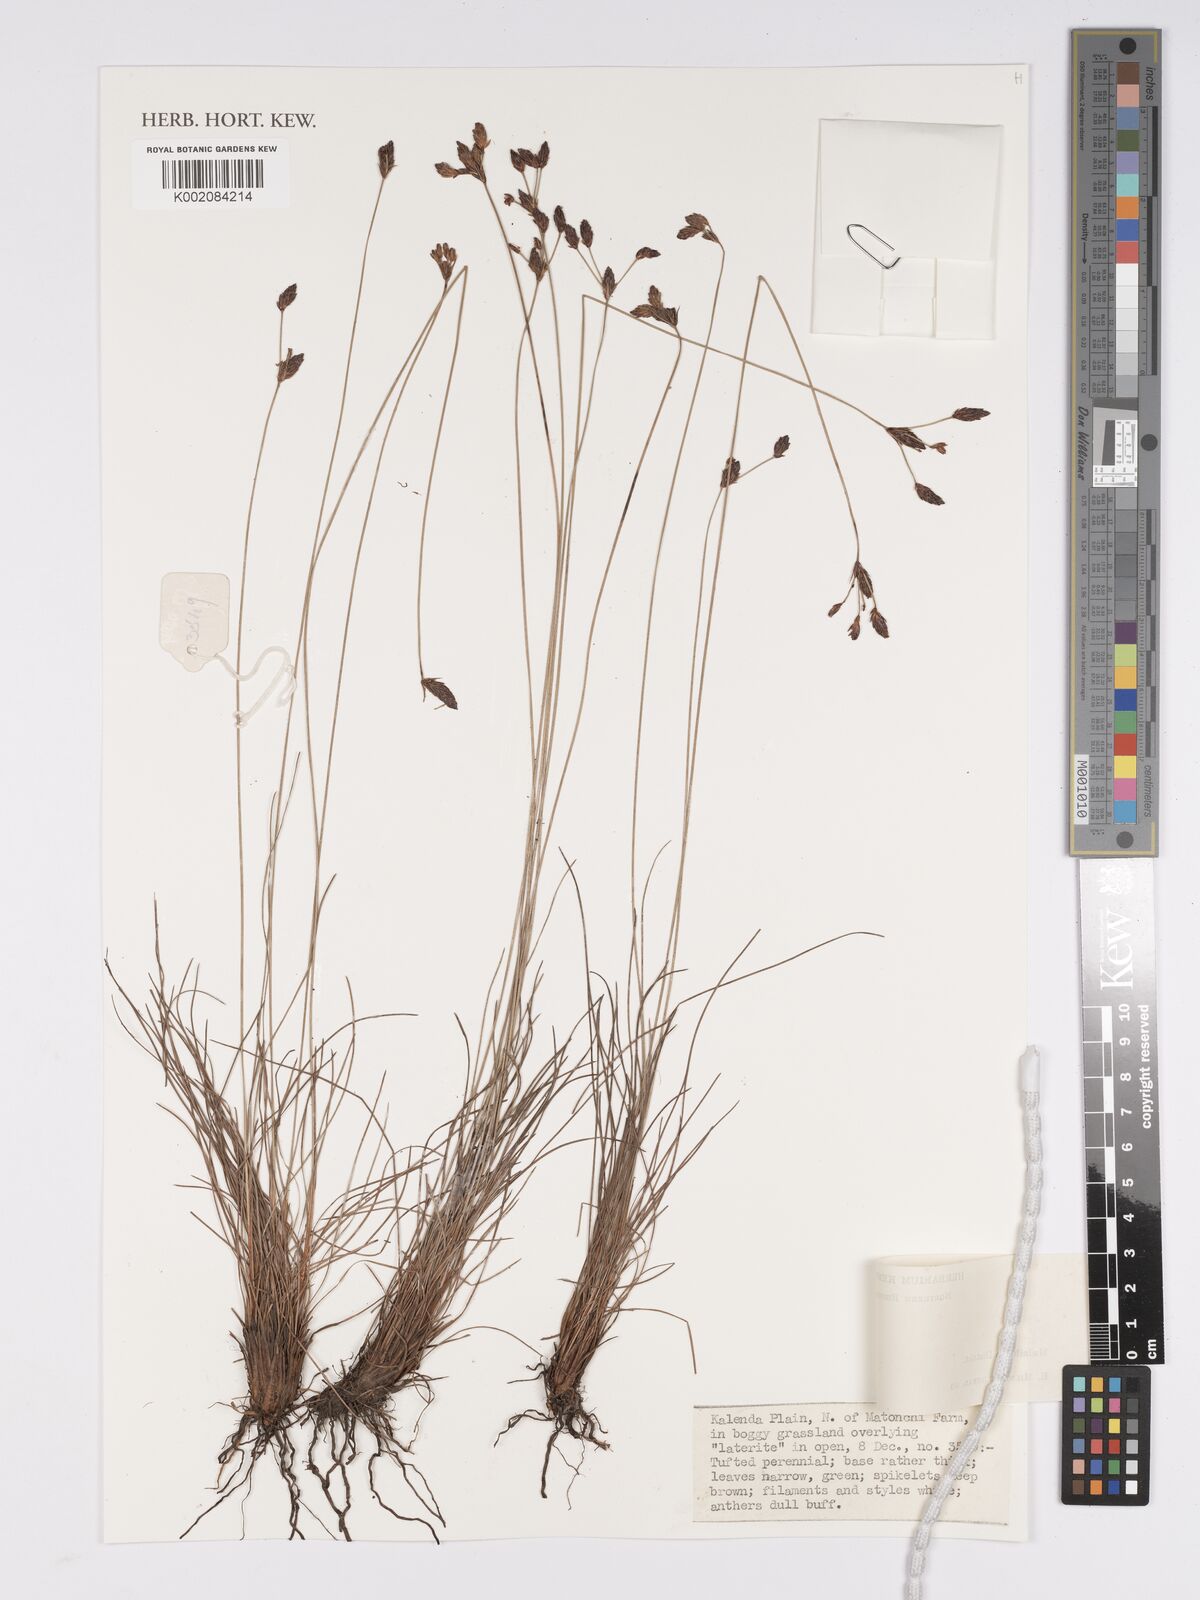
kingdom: Plantae
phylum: Tracheophyta
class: Liliopsida
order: Poales
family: Cyperaceae
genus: Bulbostylis
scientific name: Bulbostylis
